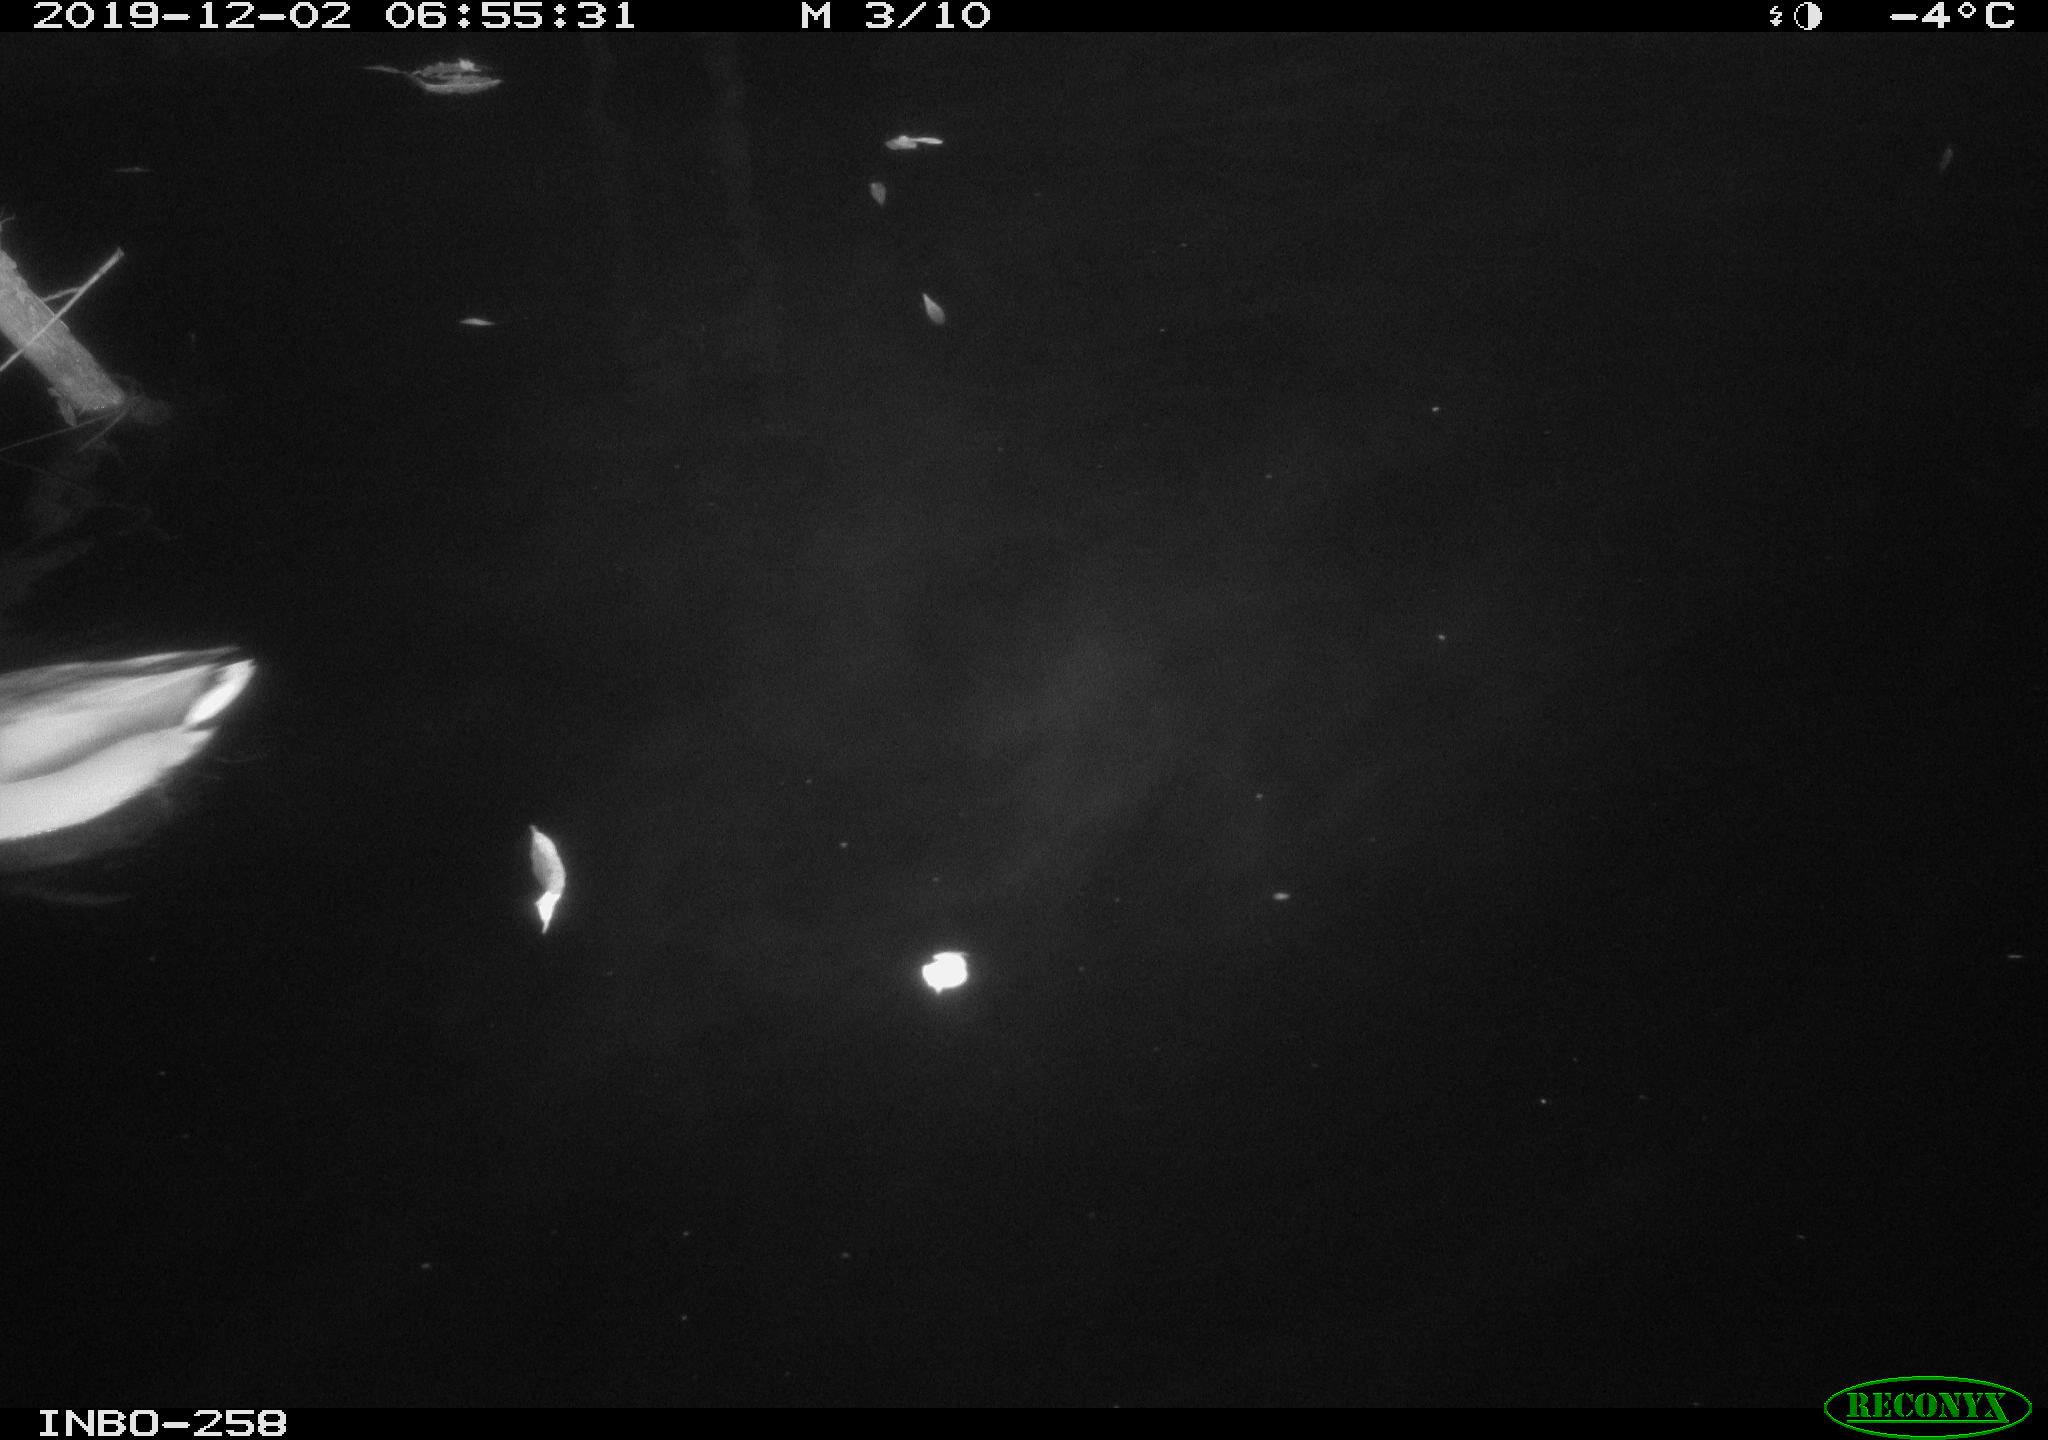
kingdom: Animalia
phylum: Chordata
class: Aves
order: Anseriformes
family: Anatidae
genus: Anas
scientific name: Anas platyrhynchos
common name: Mallard
